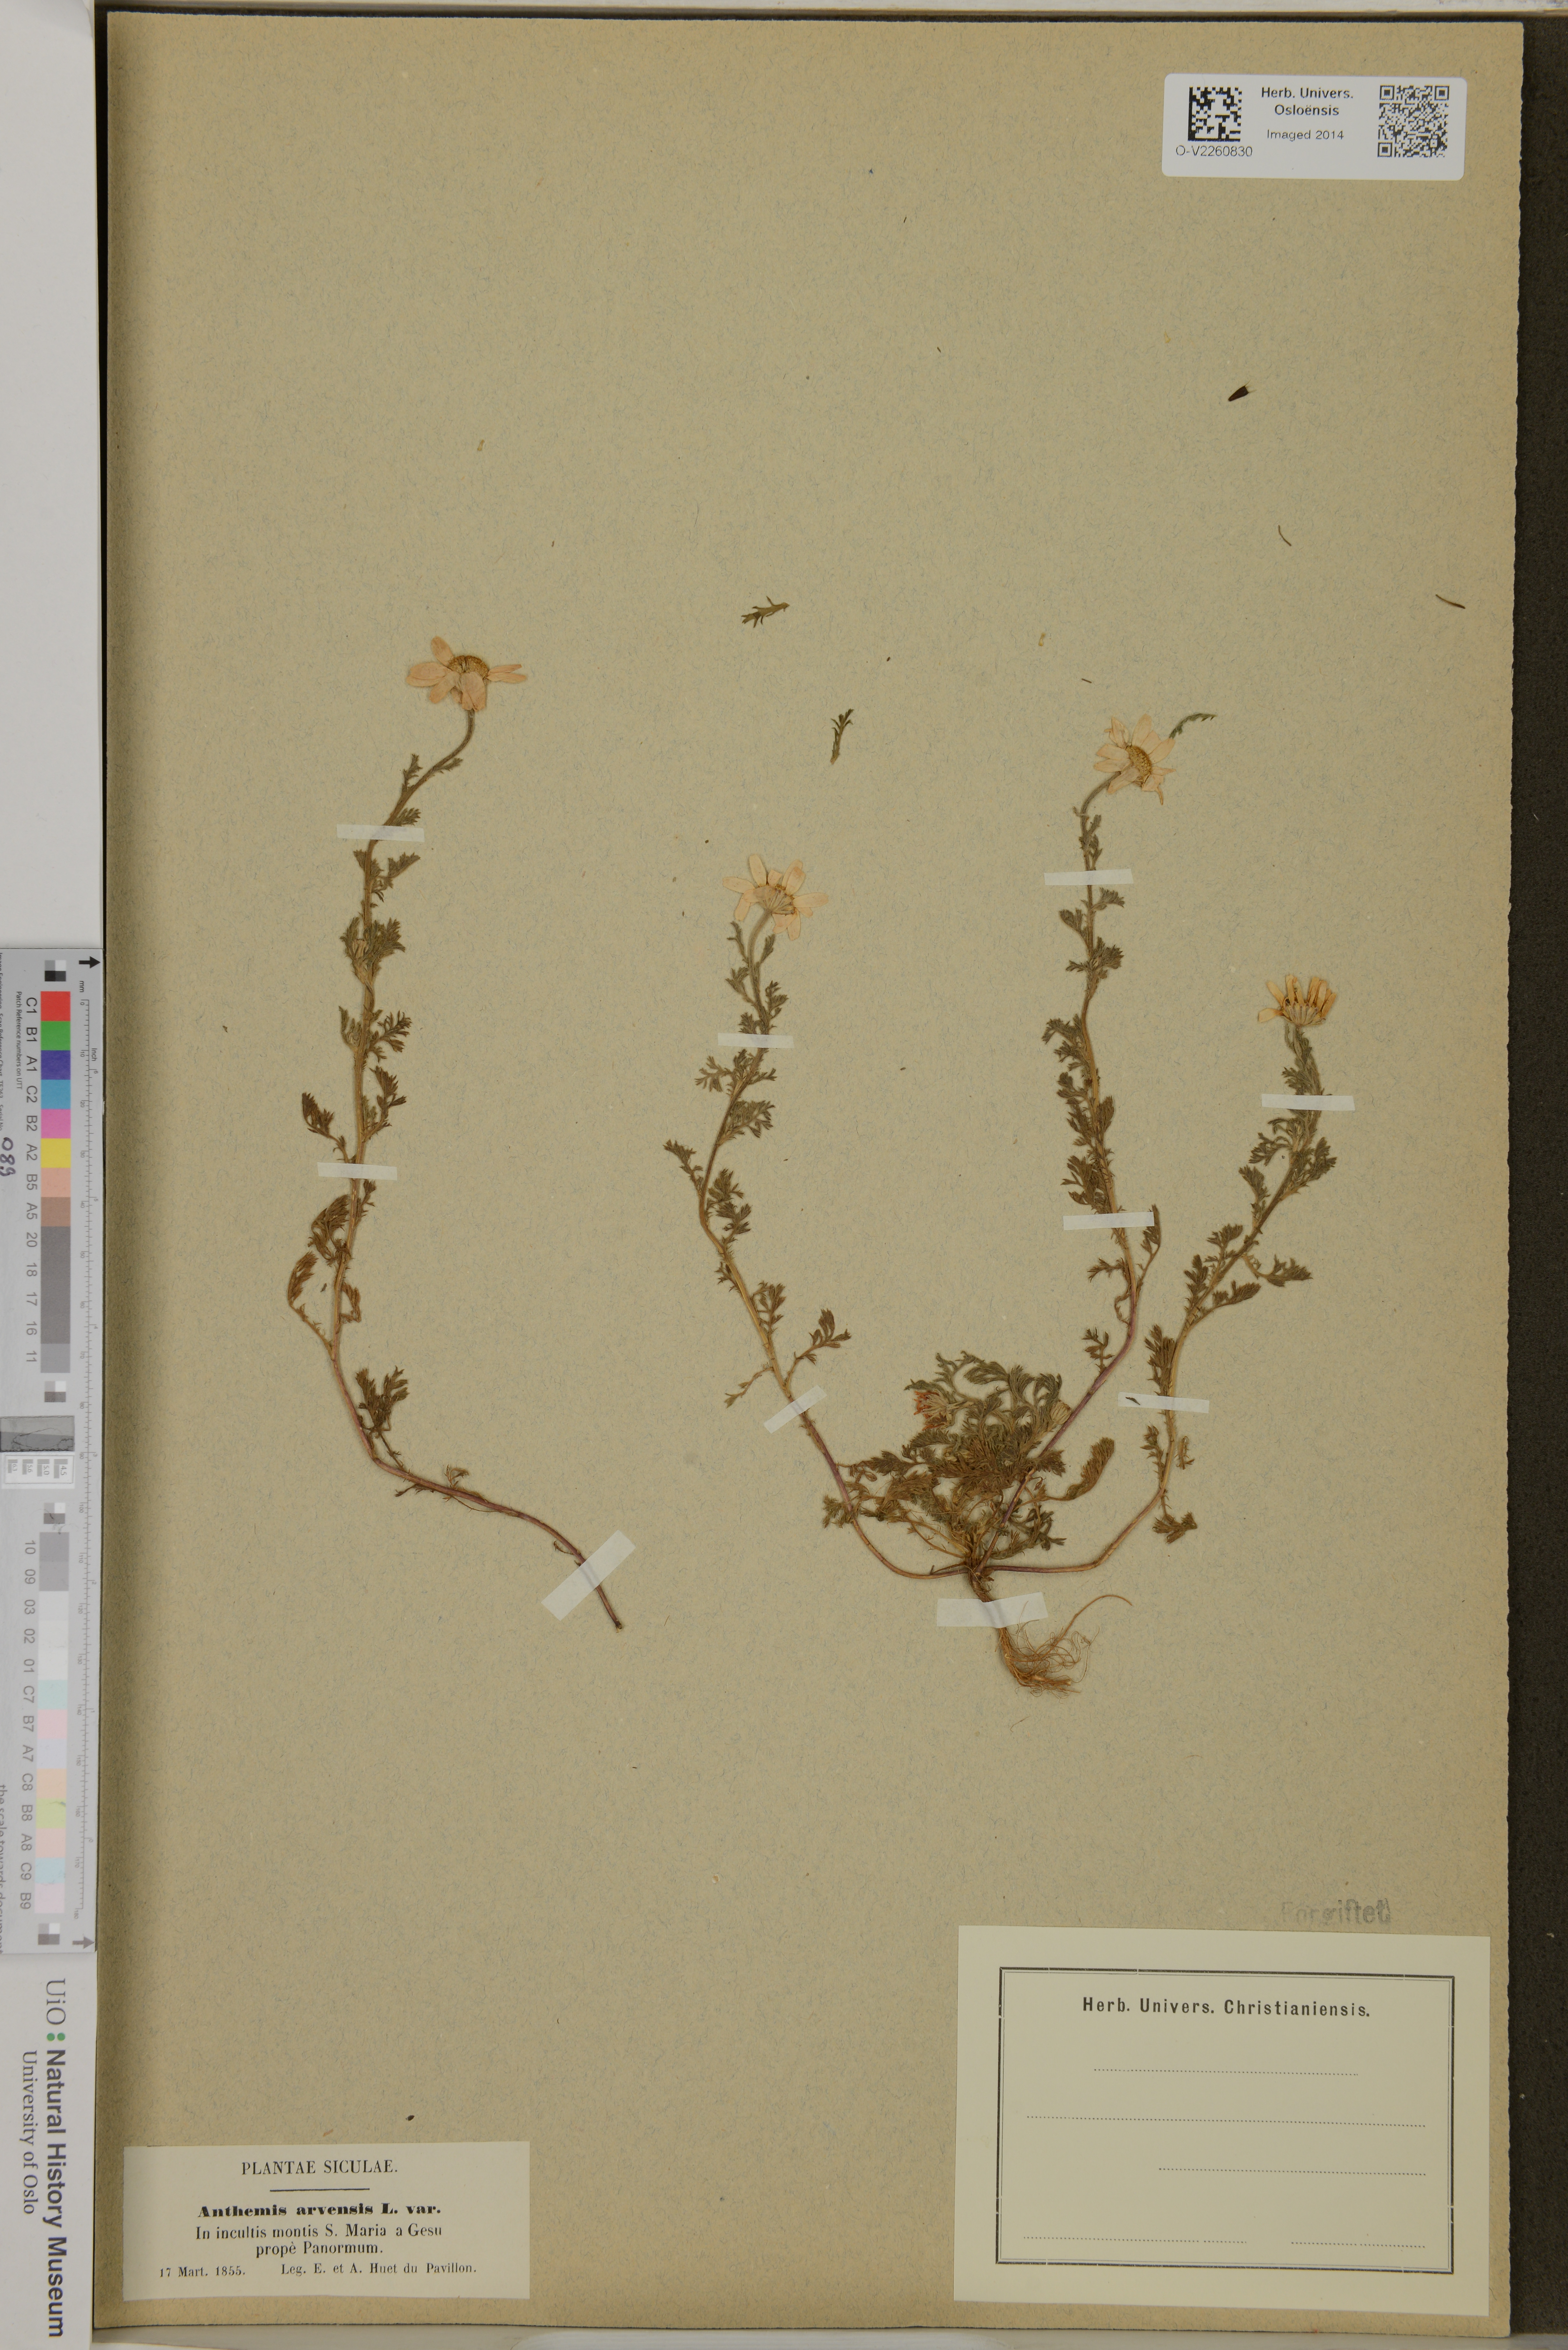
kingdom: Plantae
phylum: Tracheophyta
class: Magnoliopsida
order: Asterales
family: Asteraceae
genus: Anthemis
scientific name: Anthemis arvensis
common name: Corn chamomile
